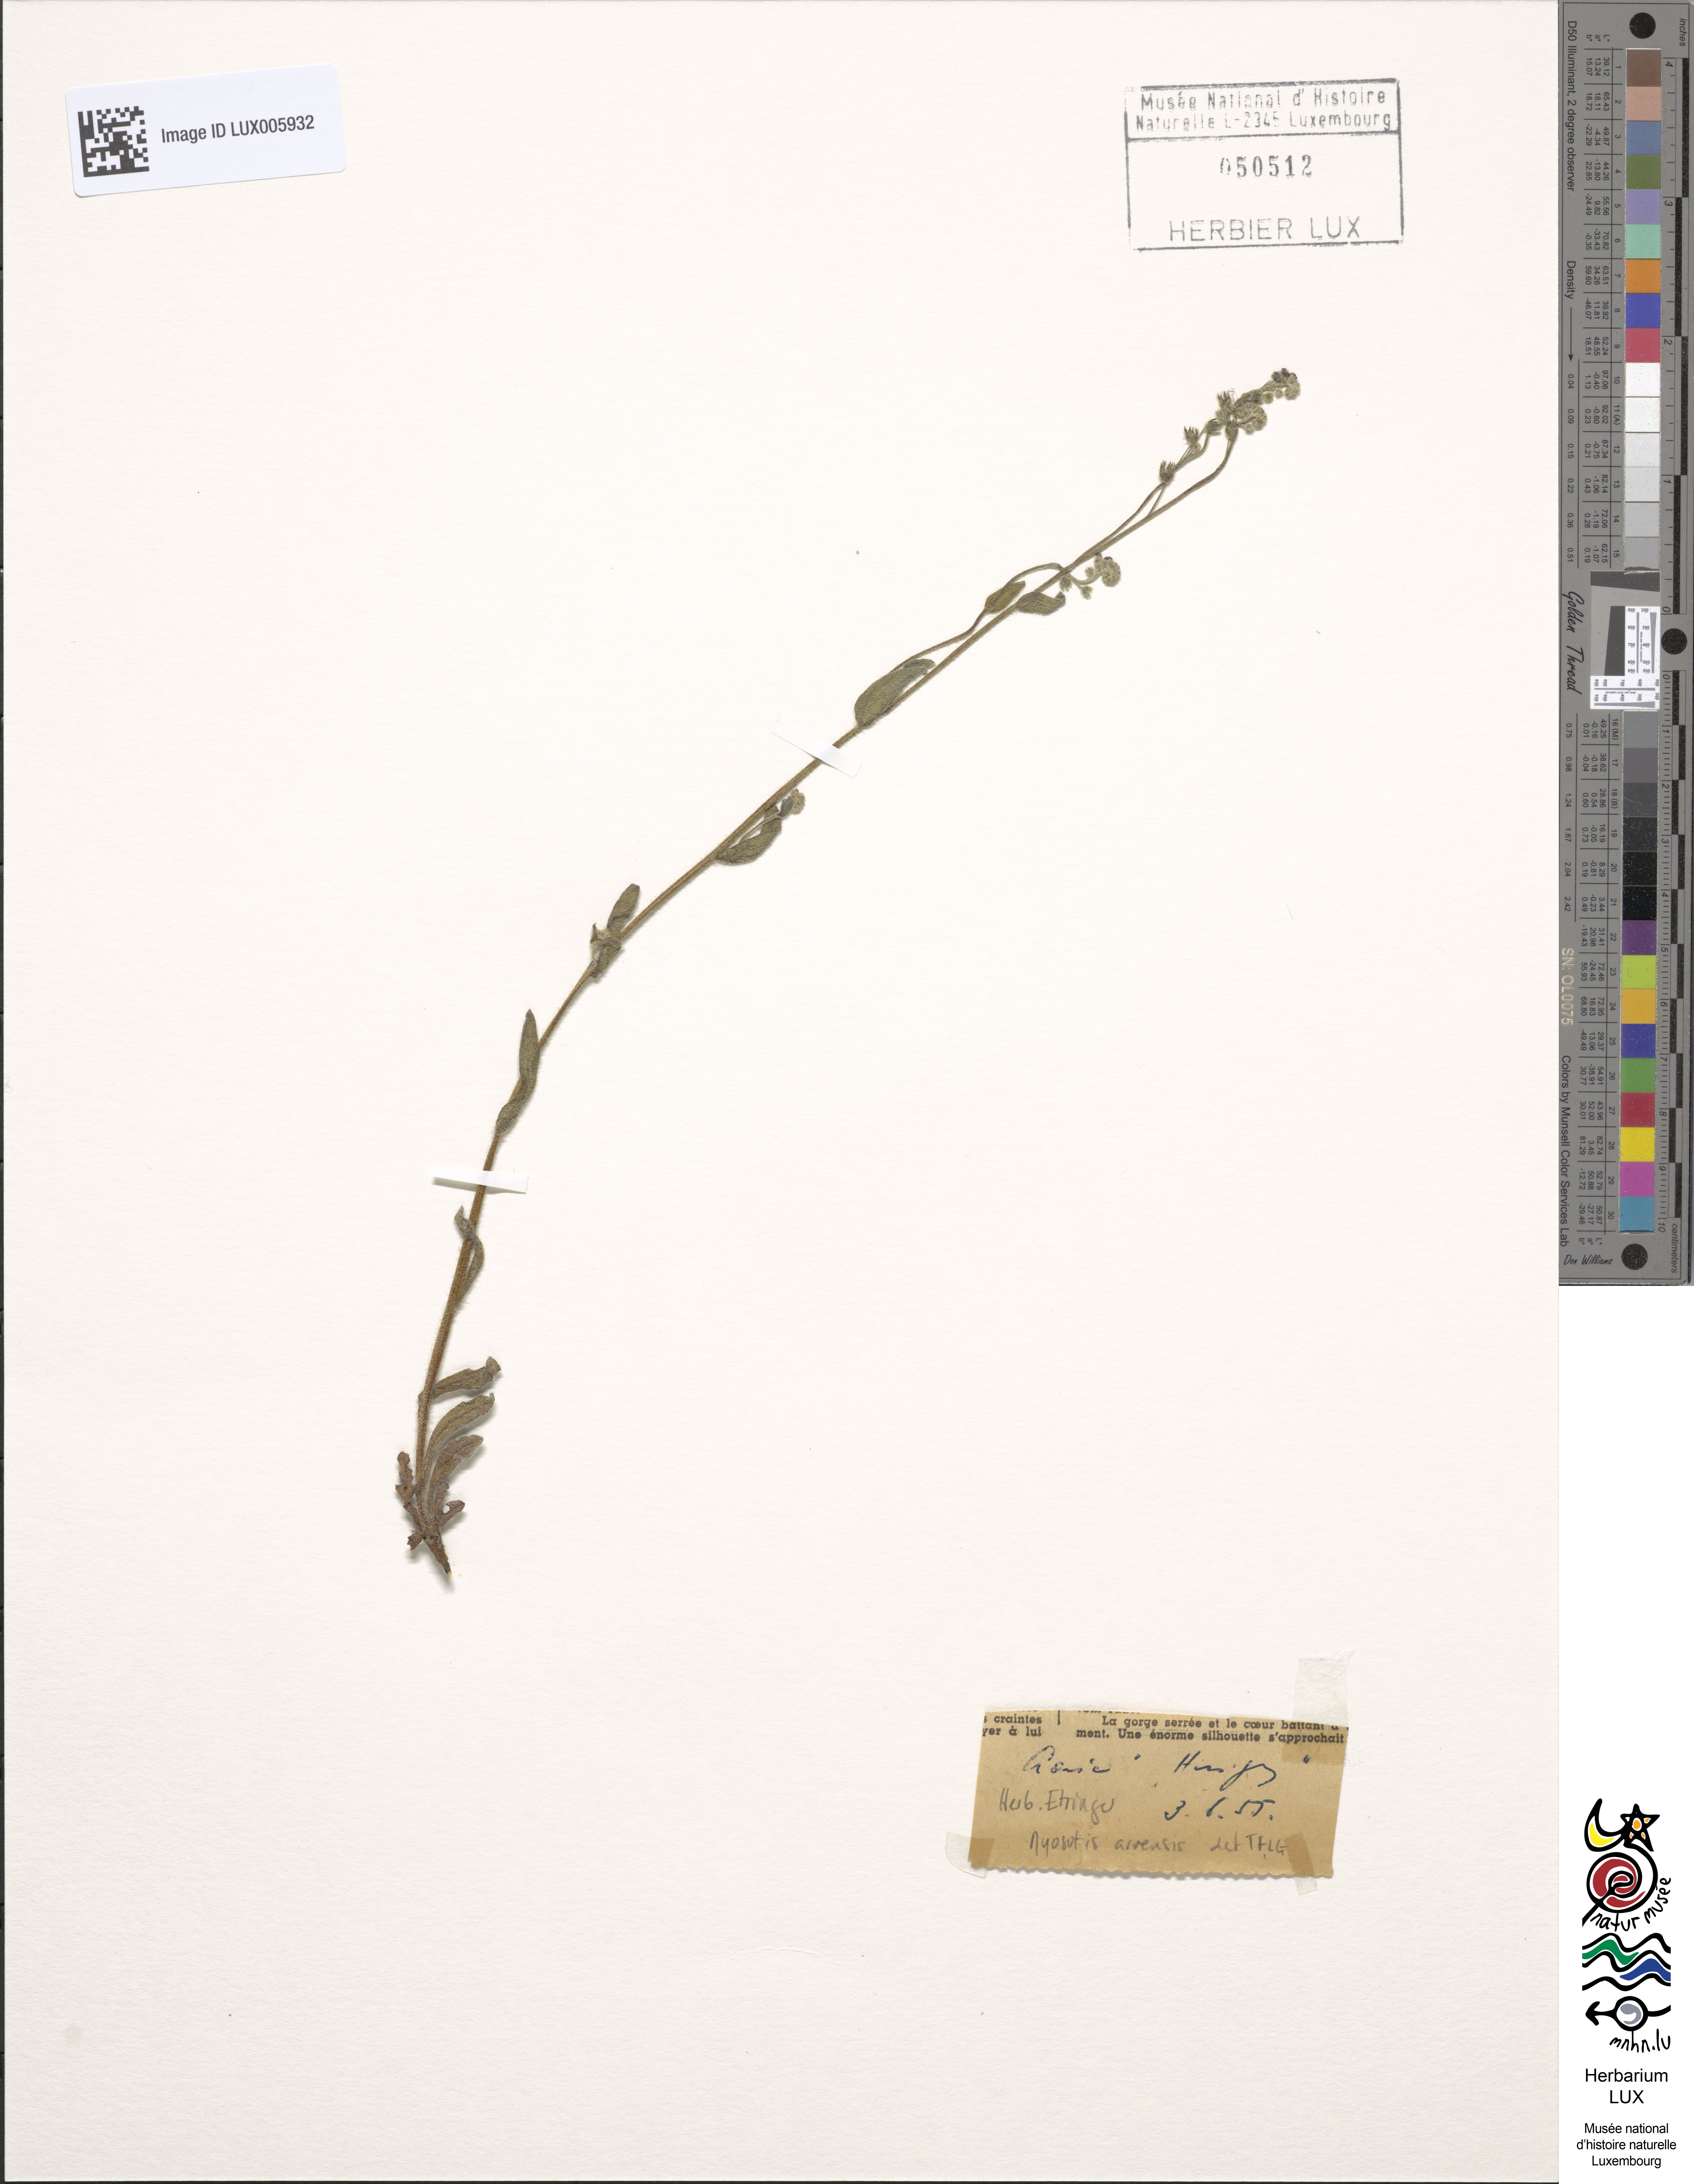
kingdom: Plantae
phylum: Tracheophyta
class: Magnoliopsida
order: Boraginales
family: Boraginaceae
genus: Myosotis
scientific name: Myosotis arvensis
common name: Field forget-me-not
